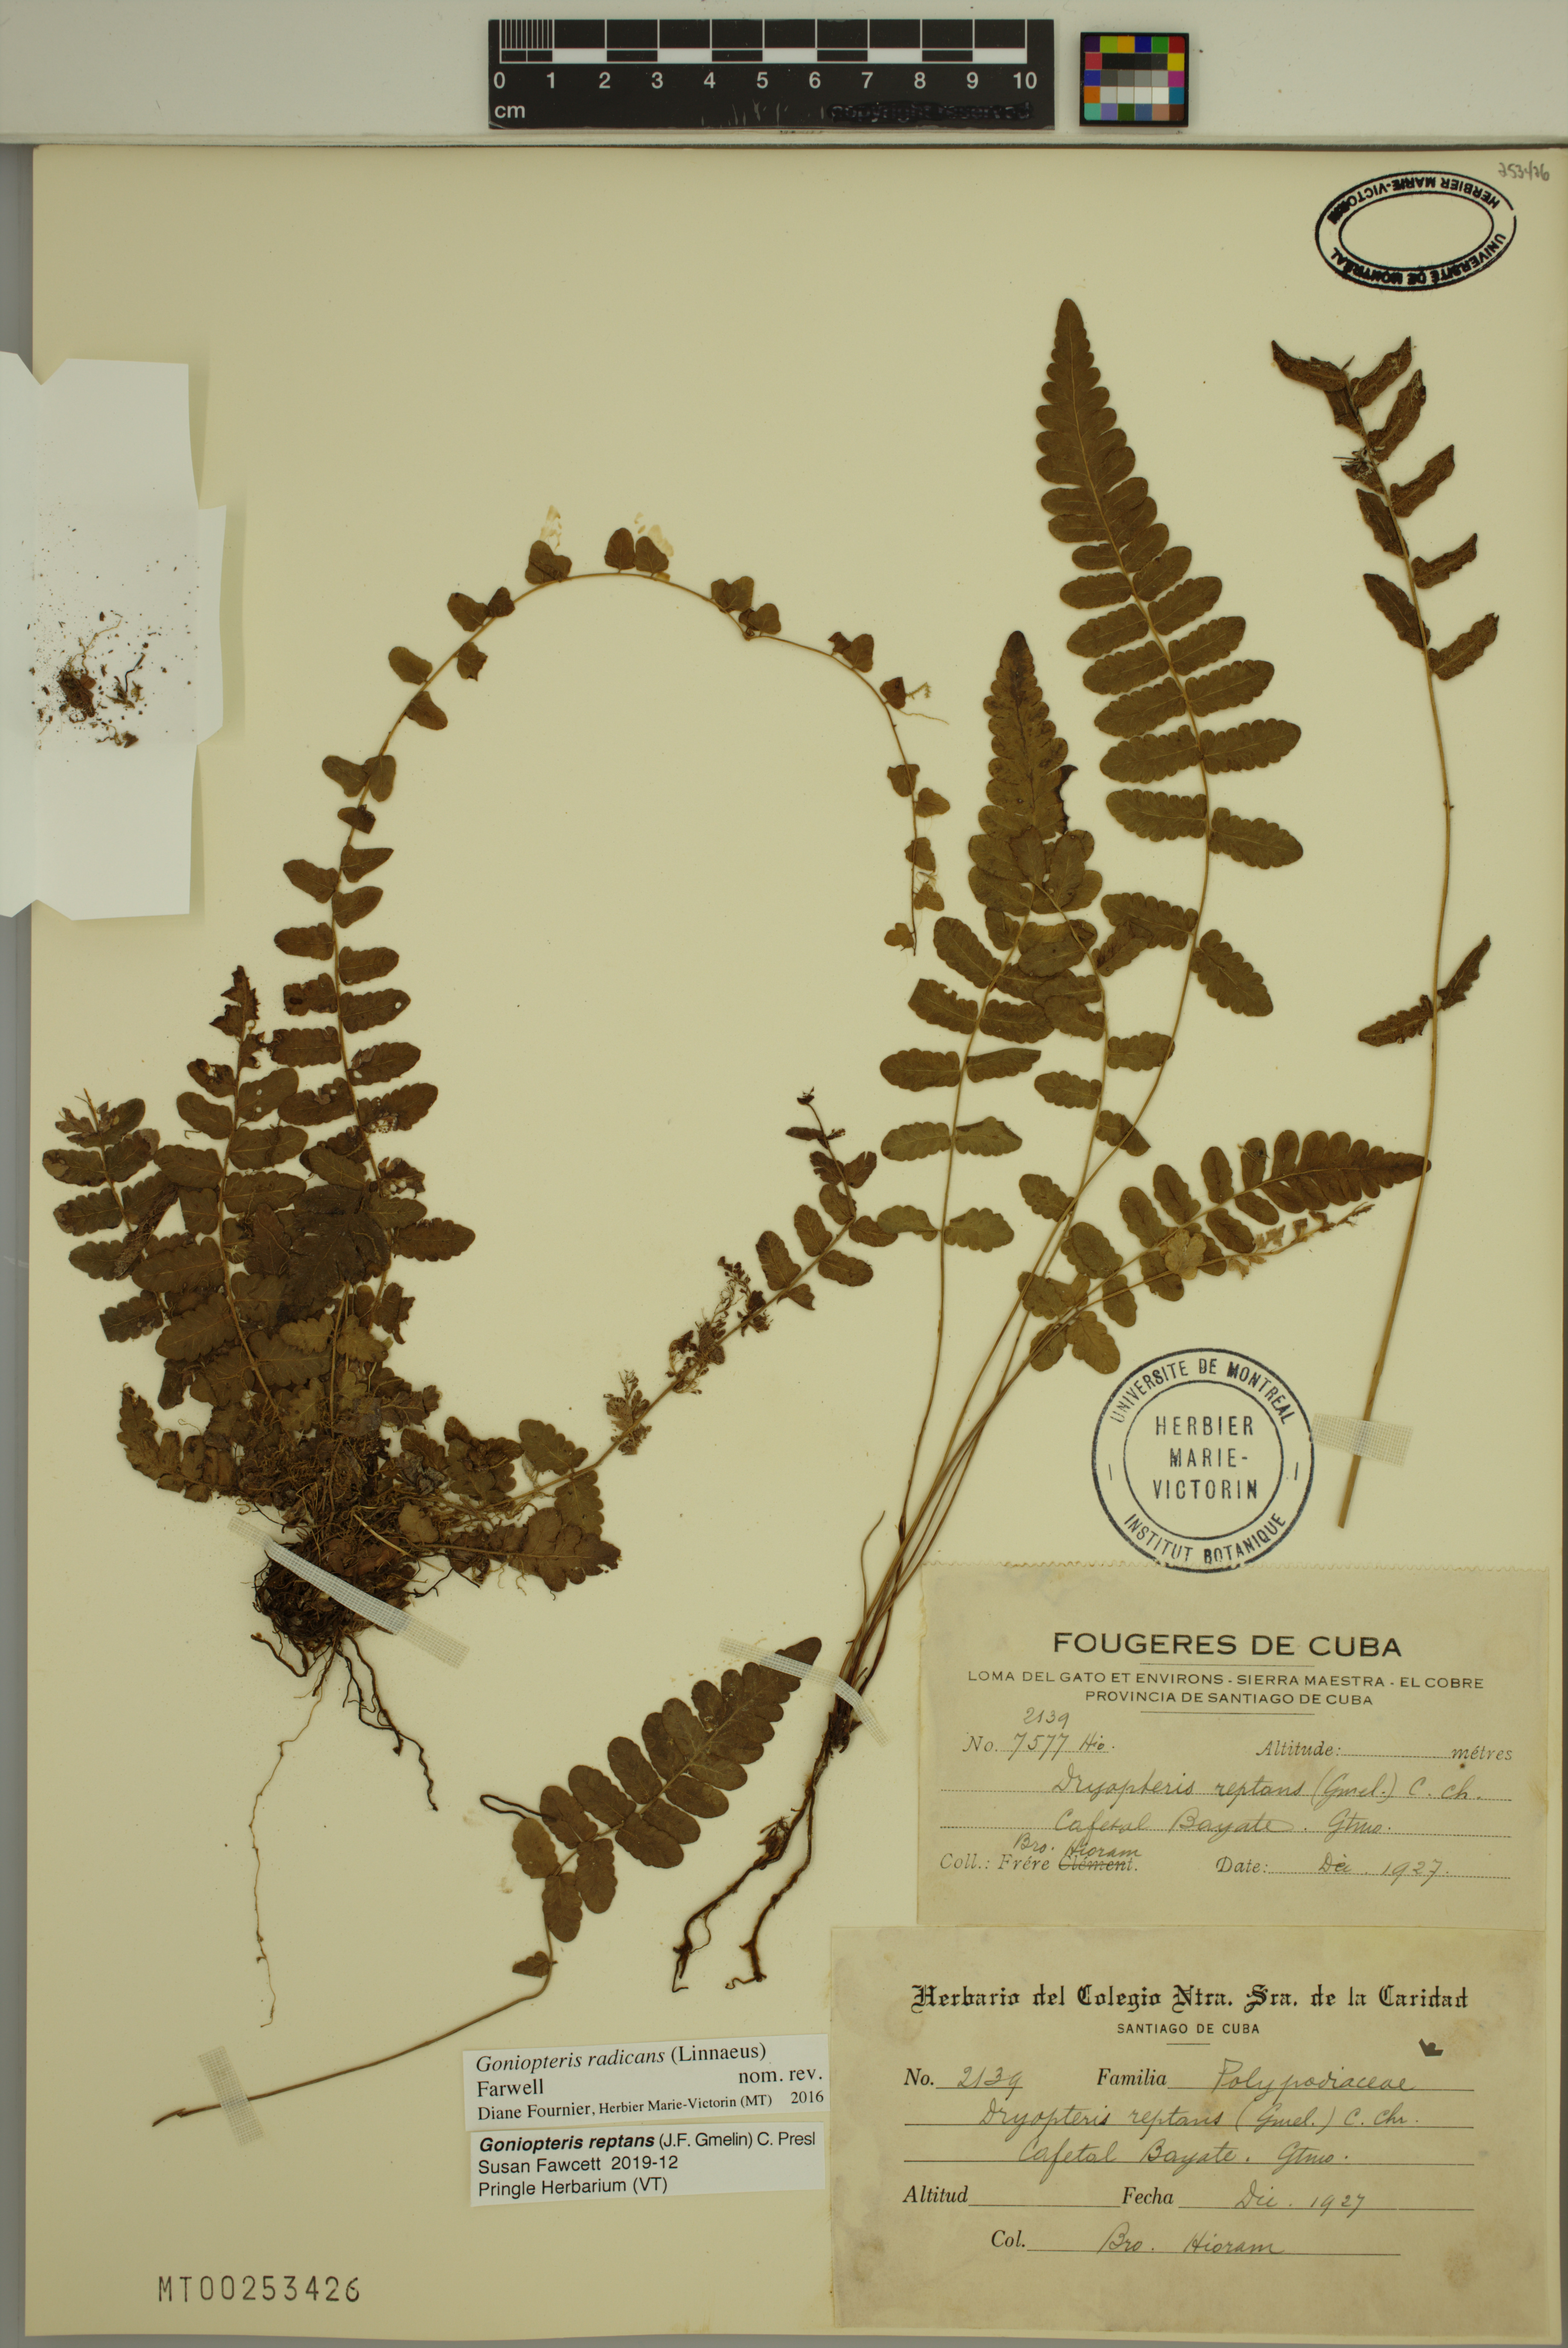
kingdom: Plantae
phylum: Tracheophyta
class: Polypodiopsida
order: Polypodiales
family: Thelypteridaceae
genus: Goniopteris
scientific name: Goniopteris reptans
